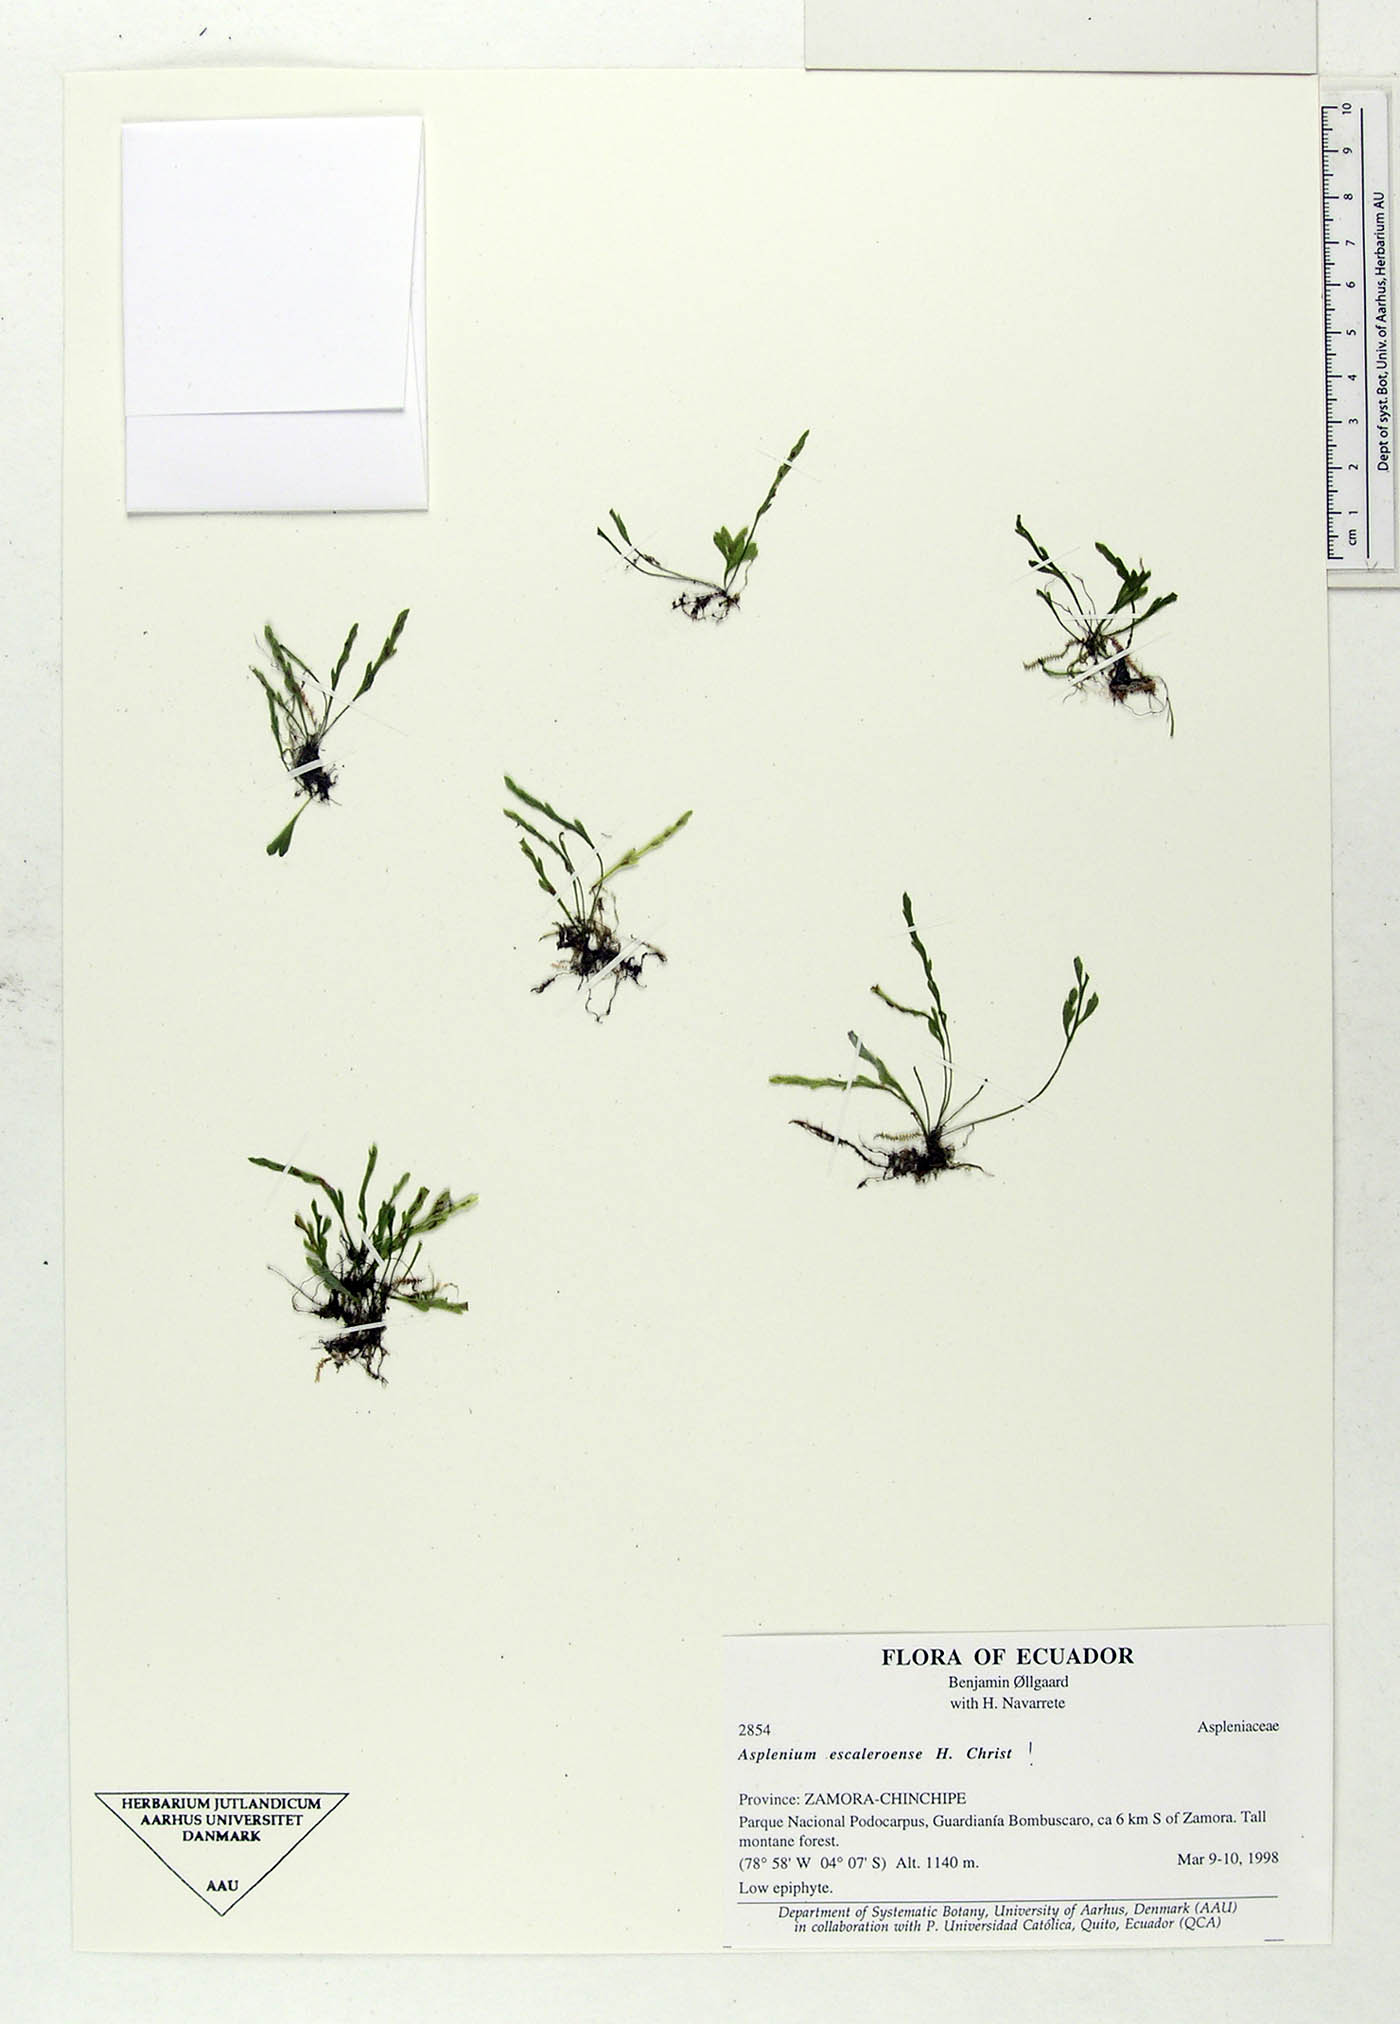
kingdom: Plantae
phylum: Tracheophyta
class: Polypodiopsida
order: Polypodiales
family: Aspleniaceae
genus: Asplenium
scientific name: Asplenium escaleroense
